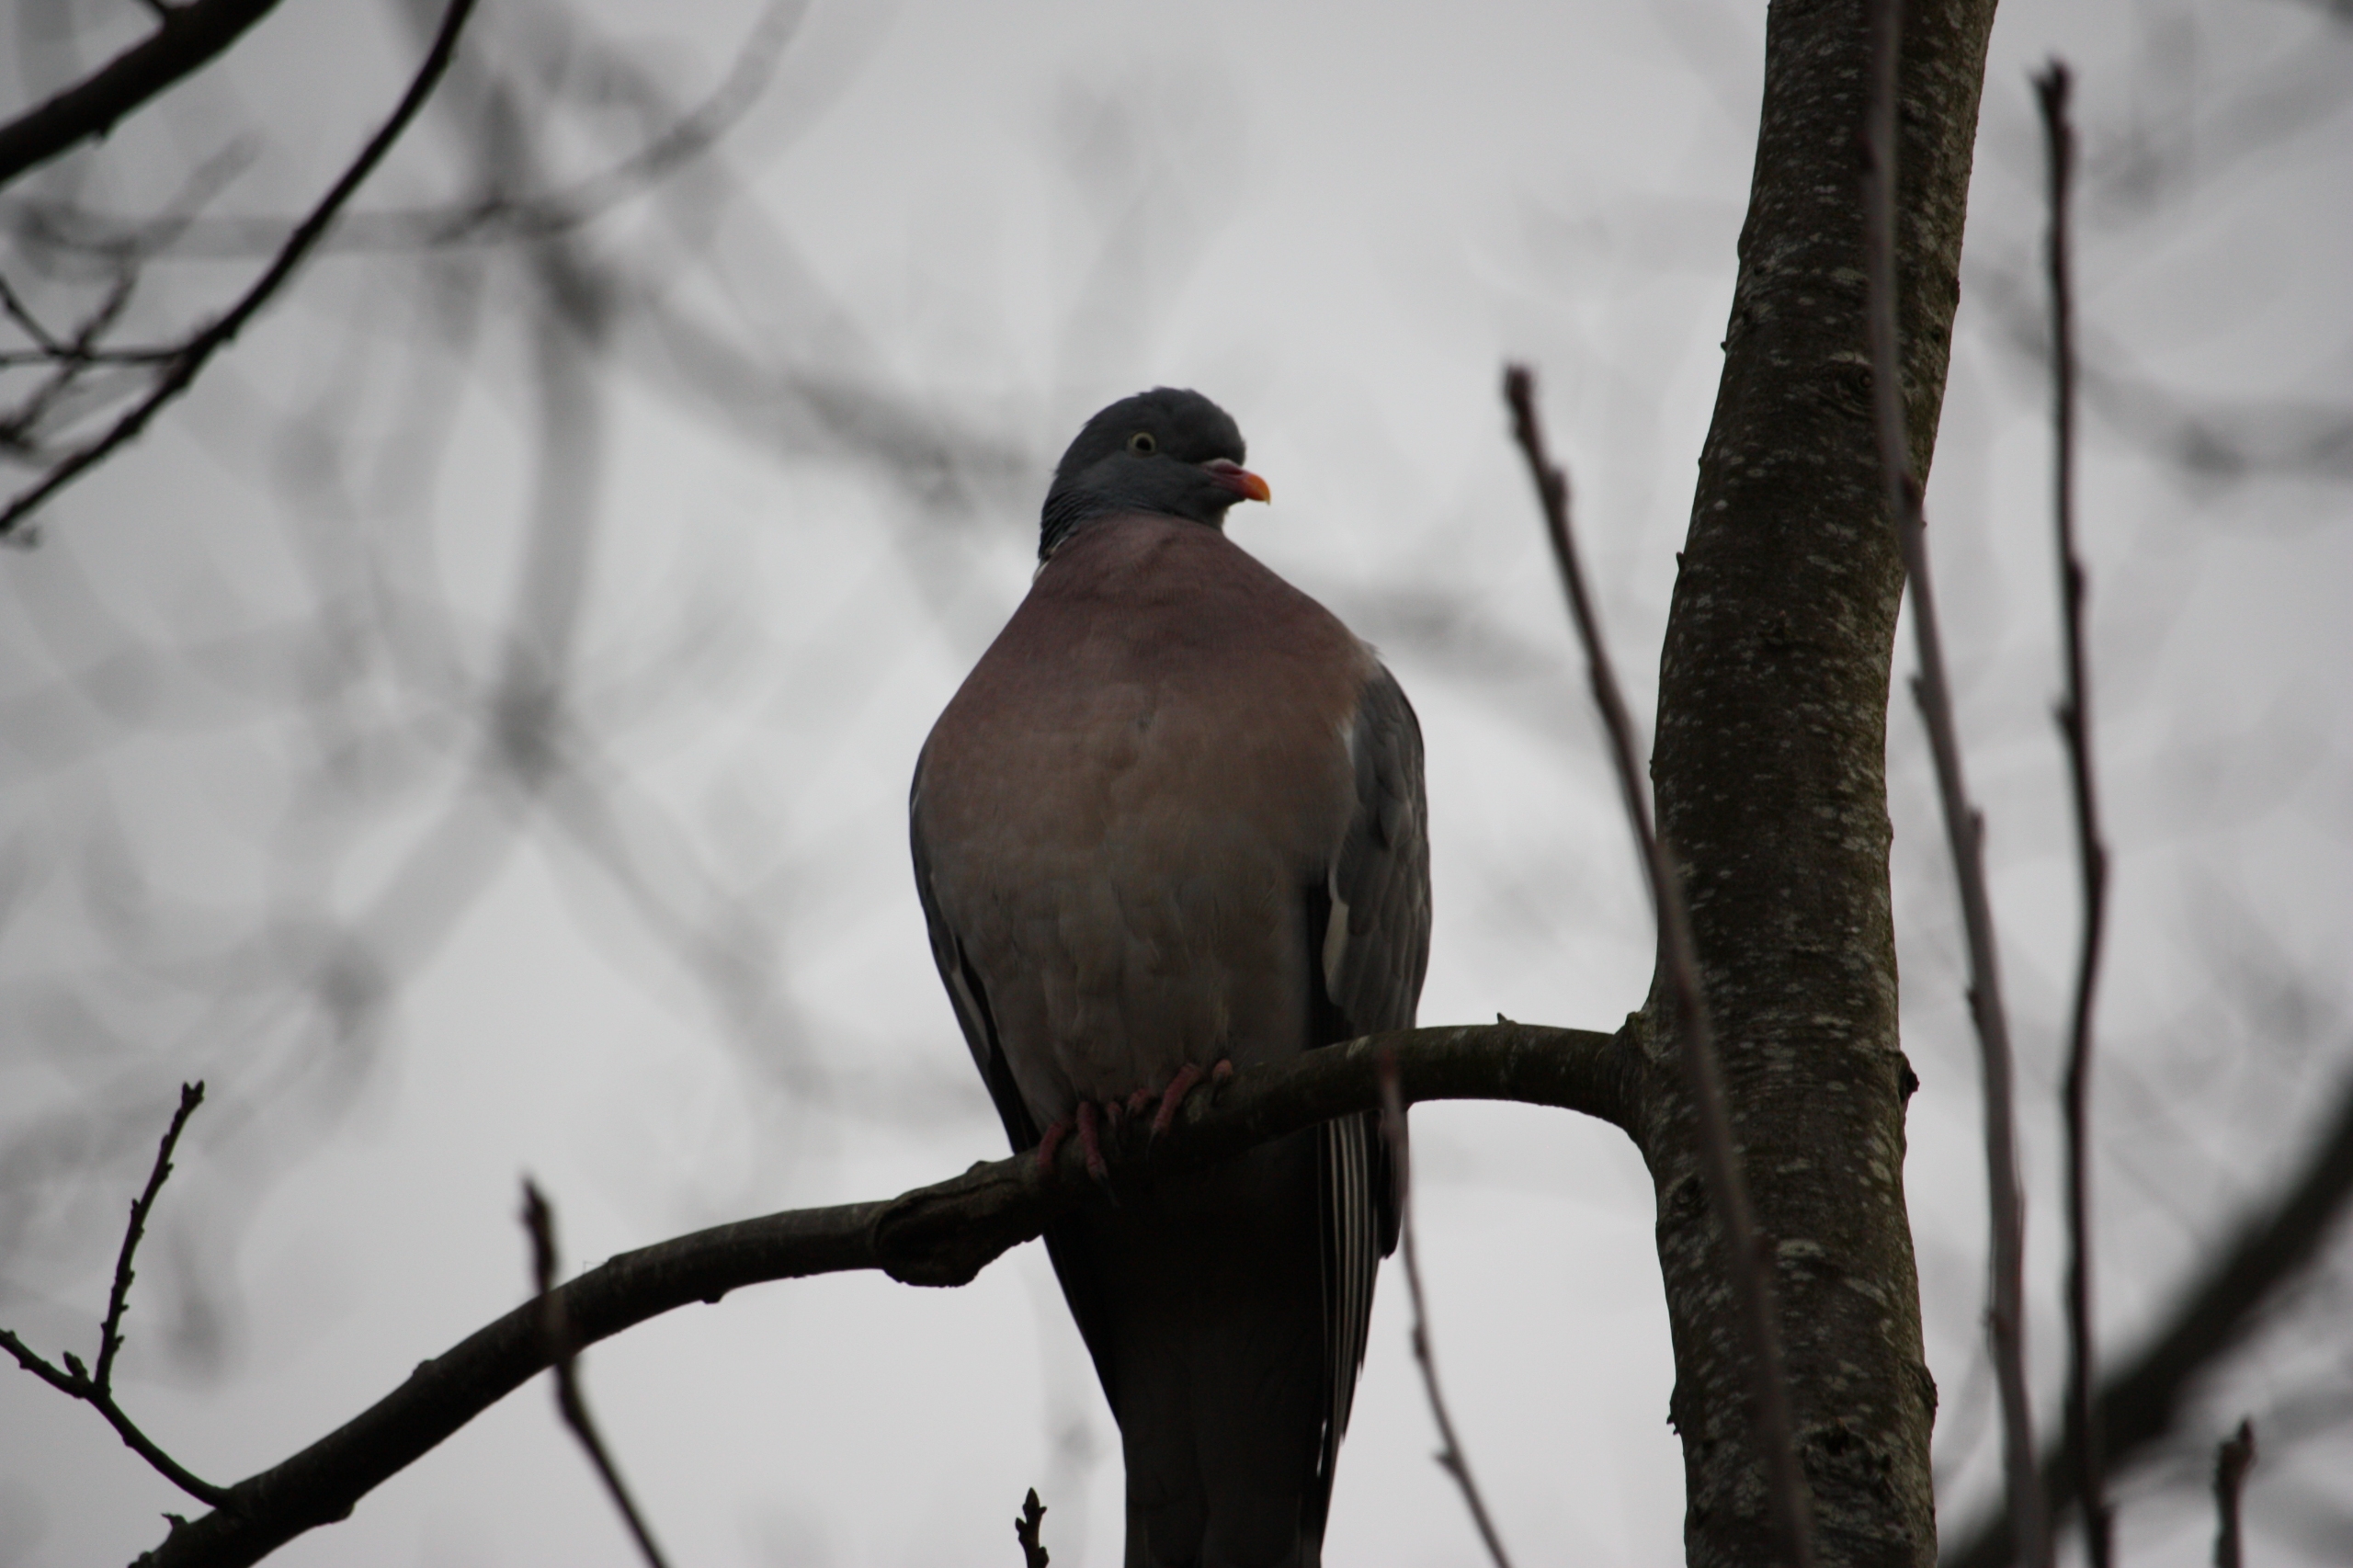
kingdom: Animalia
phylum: Chordata
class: Aves
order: Columbiformes
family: Columbidae
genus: Columba
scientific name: Columba palumbus
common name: Ringdue
